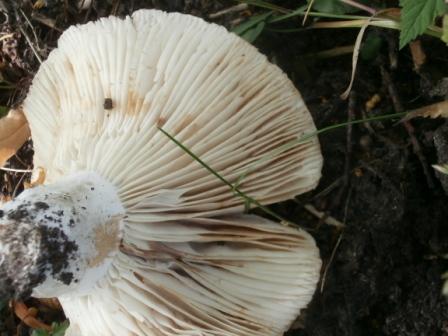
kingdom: Fungi
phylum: Basidiomycota
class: Agaricomycetes
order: Russulales
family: Russulaceae
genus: Russula
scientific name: Russula delica
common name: almindelig tragt-skørhat
